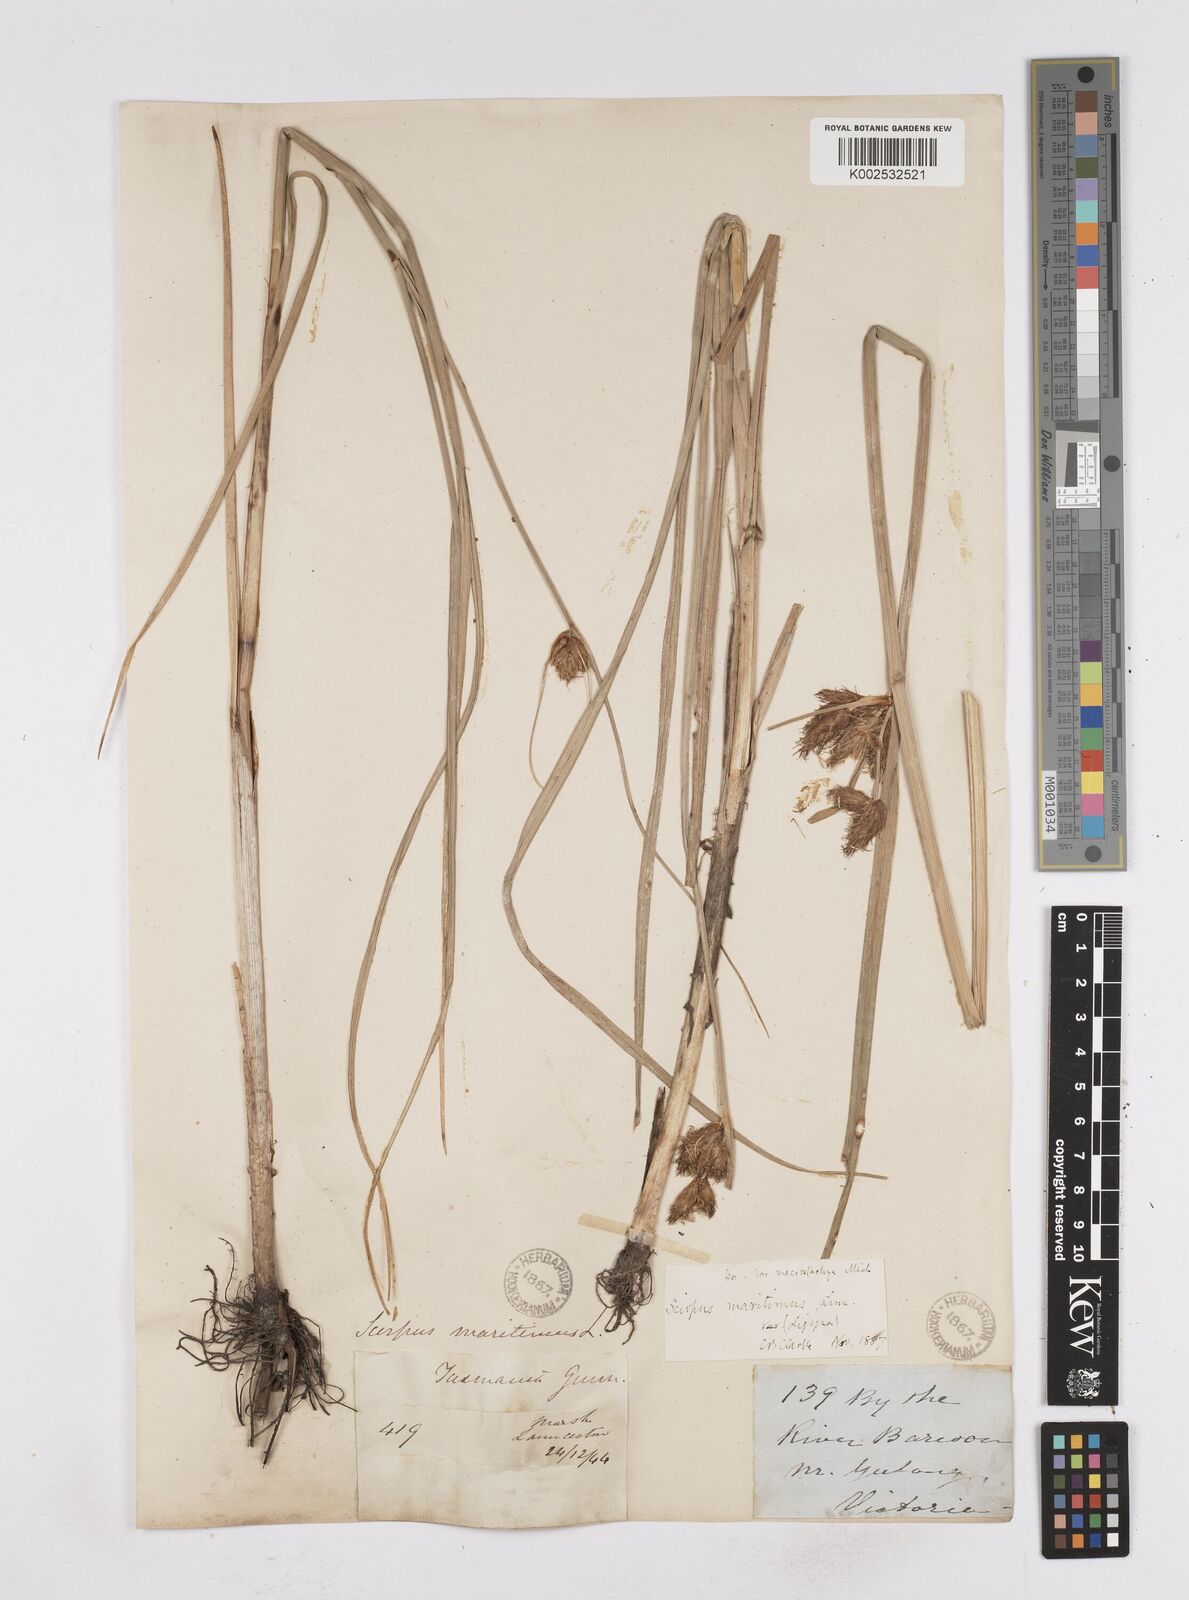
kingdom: Plantae
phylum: Tracheophyta
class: Liliopsida
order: Poales
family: Cyperaceae
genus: Bolboschoenus
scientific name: Bolboschoenus maritimus
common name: Sea club-rush
